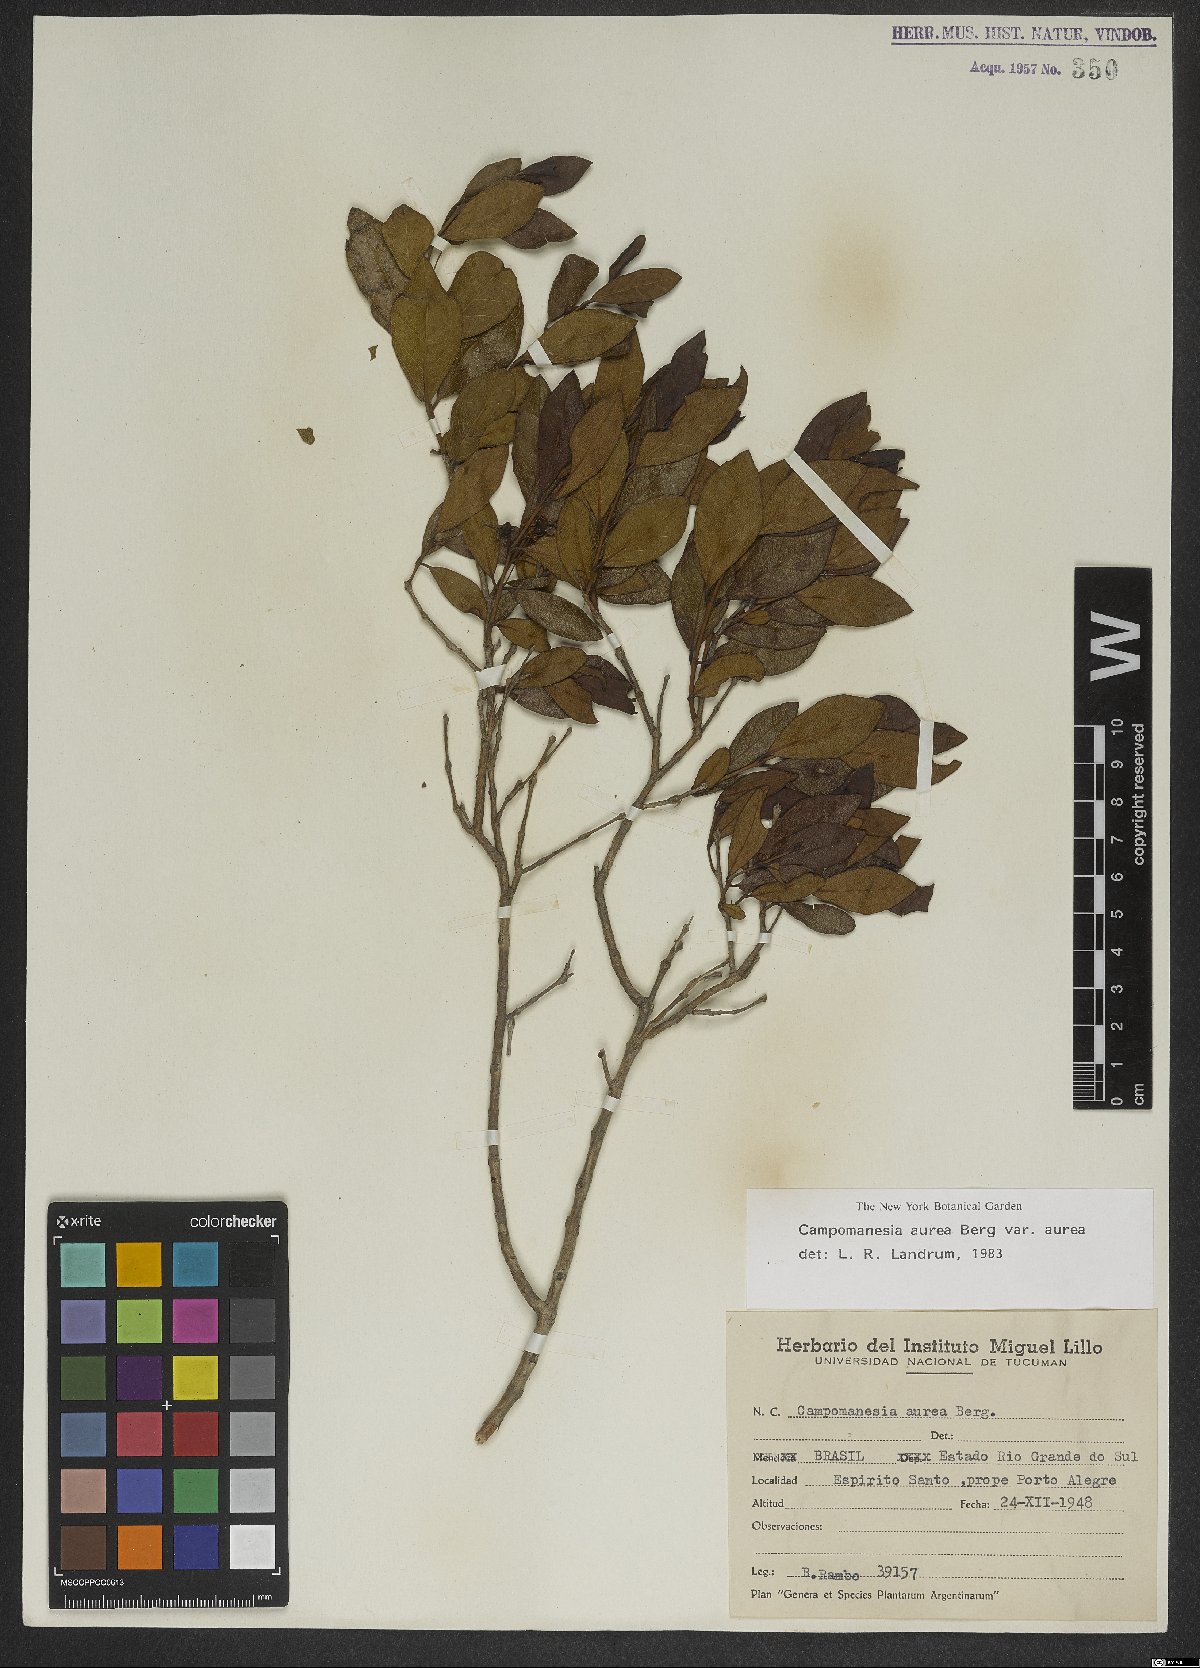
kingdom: Plantae
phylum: Tracheophyta
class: Magnoliopsida
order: Myrtales
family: Myrtaceae
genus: Campomanesia
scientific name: Campomanesia aurea
